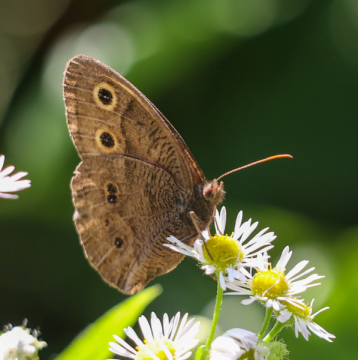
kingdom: Animalia
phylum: Arthropoda
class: Insecta
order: Lepidoptera
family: Nymphalidae
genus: Cercyonis
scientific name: Cercyonis pegala
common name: Common Wood-Nymph
